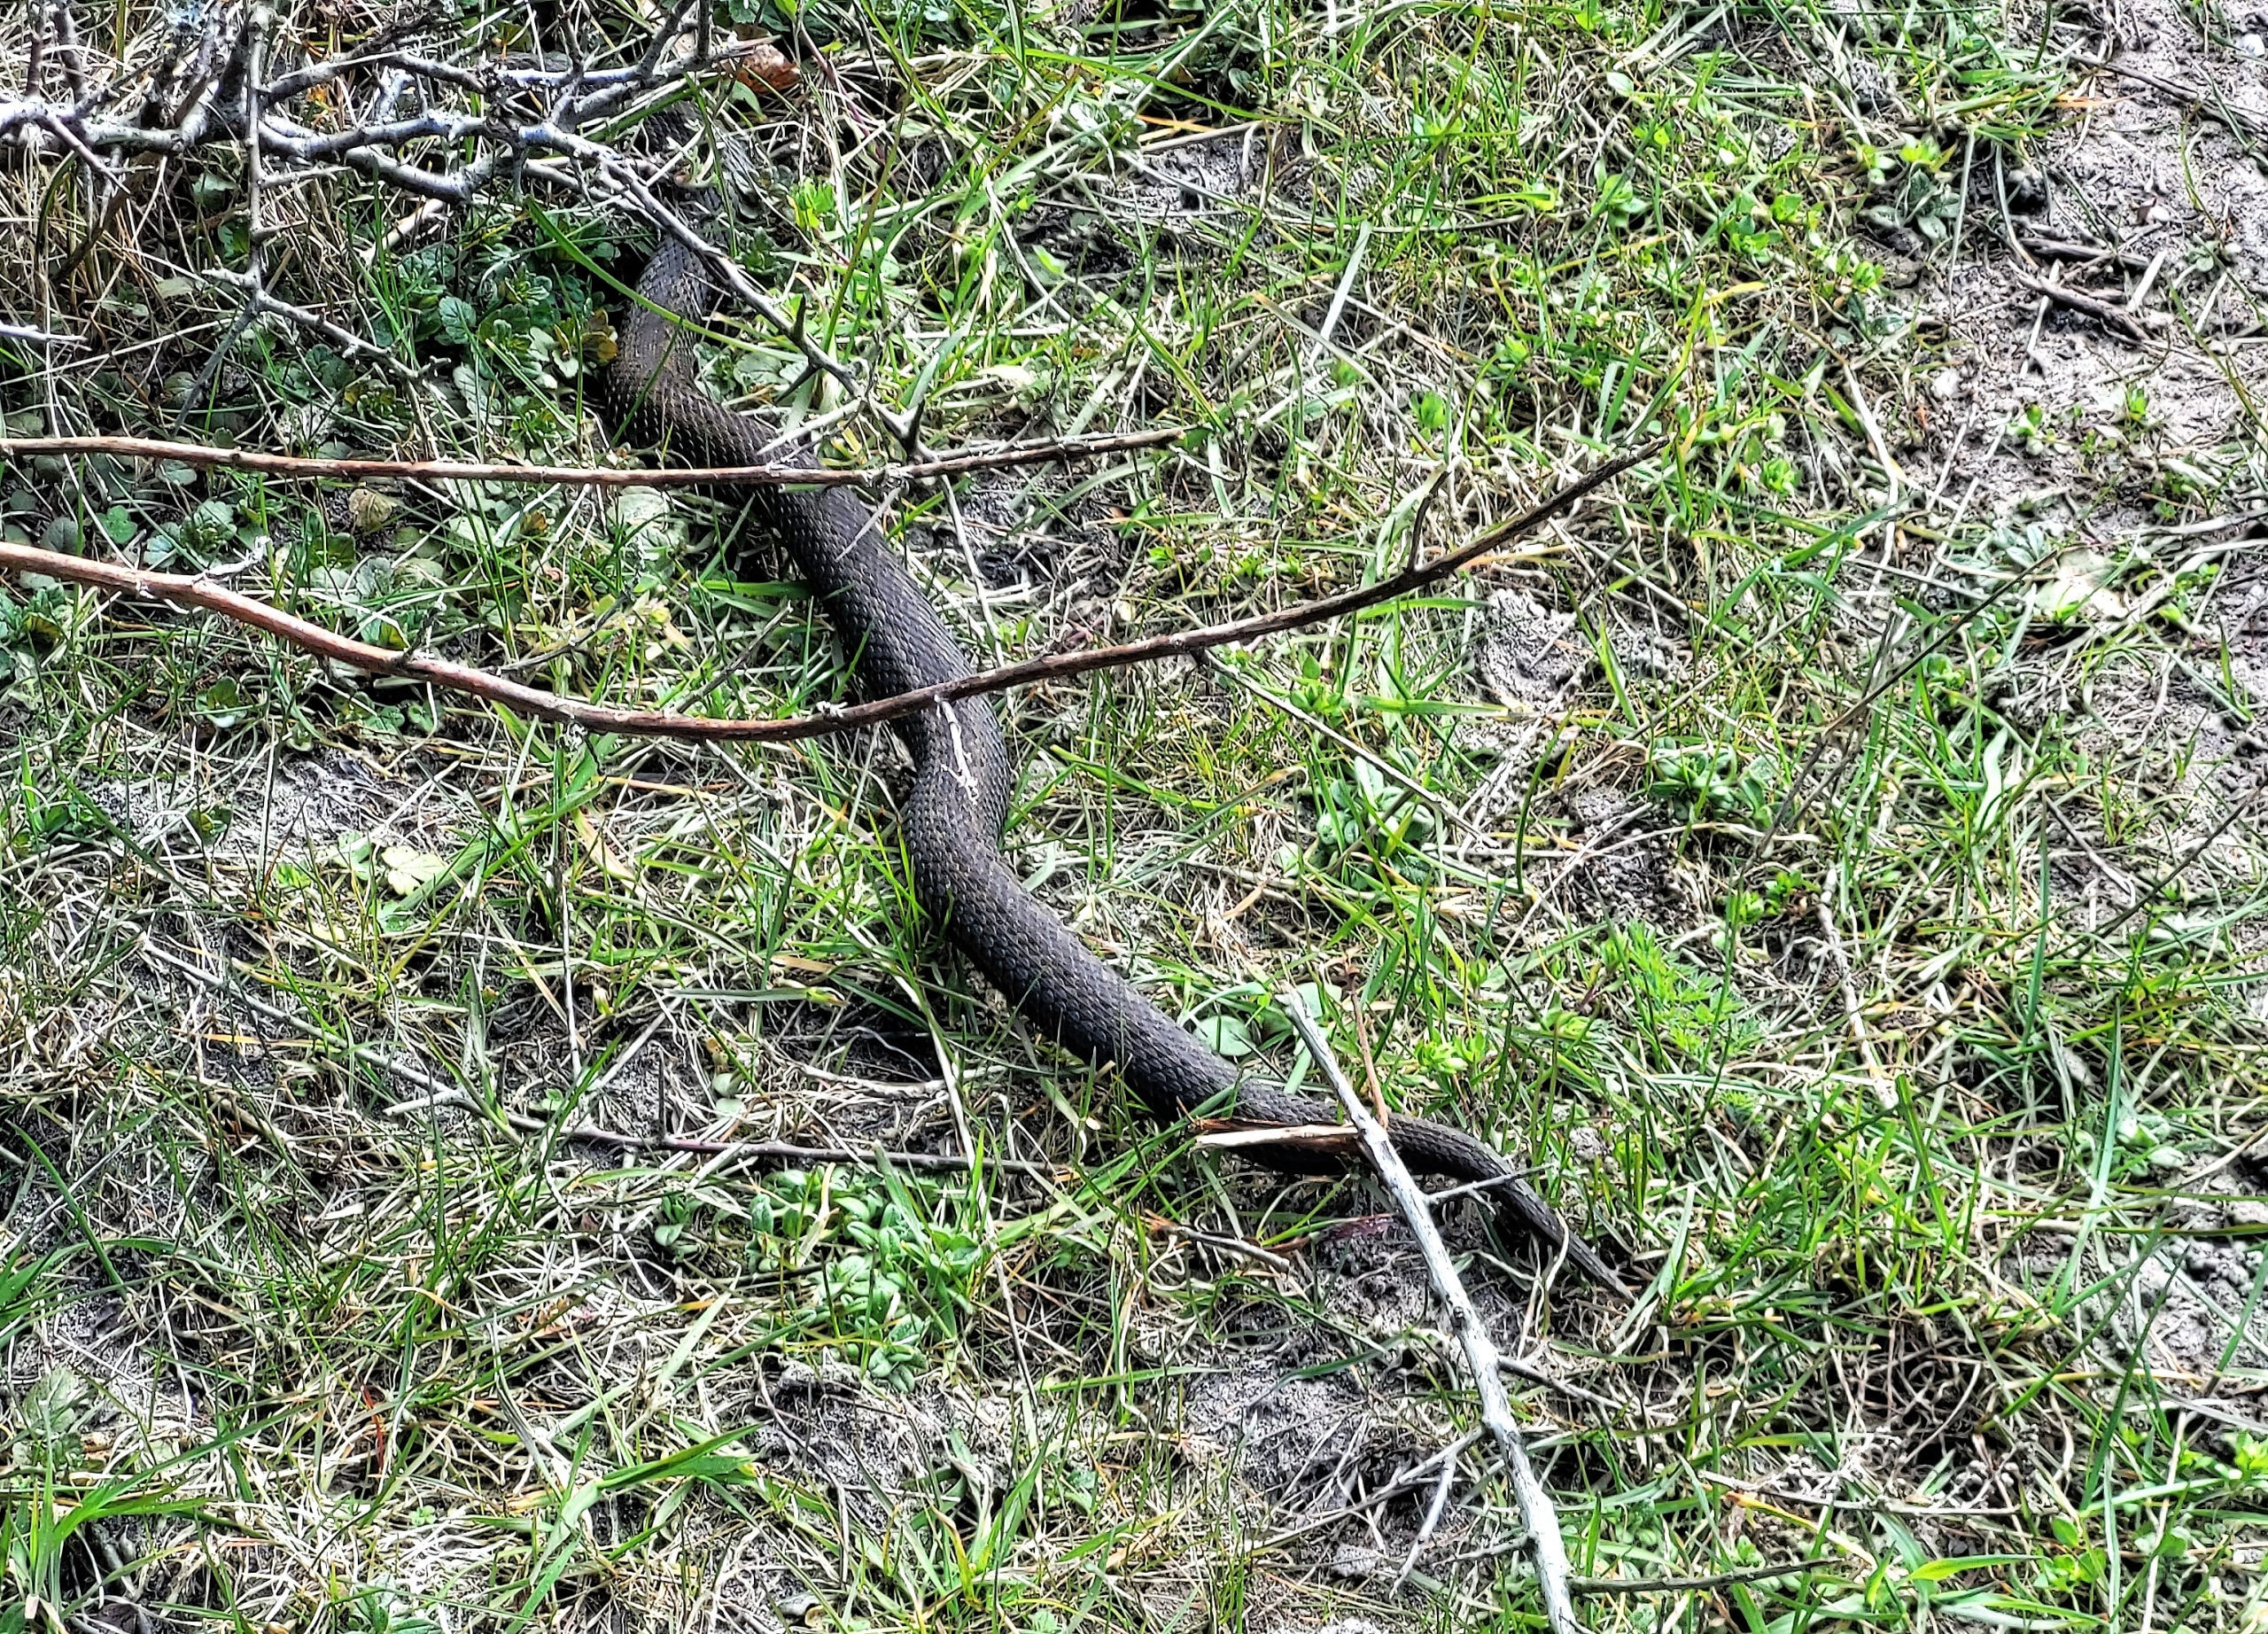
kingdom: Animalia
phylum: Chordata
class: Squamata
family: Viperidae
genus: Vipera
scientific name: Vipera berus
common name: Hugorm
